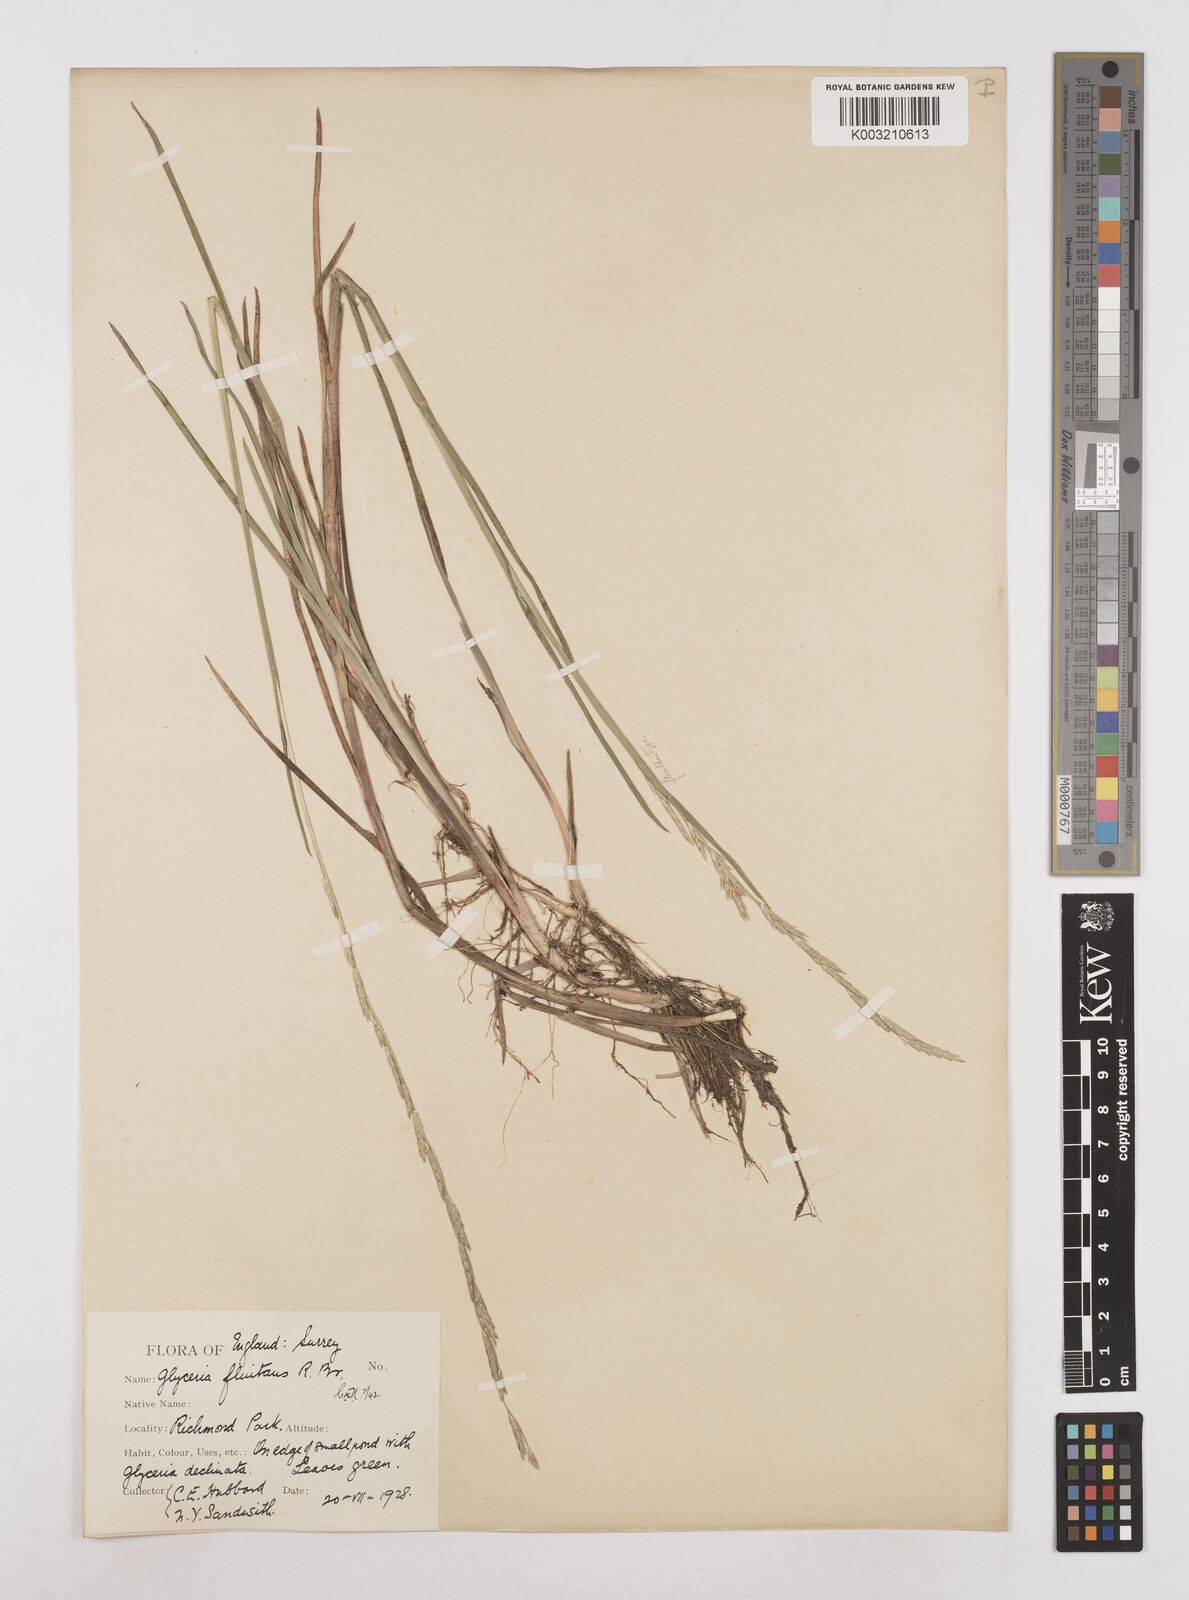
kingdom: Plantae
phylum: Tracheophyta
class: Liliopsida
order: Poales
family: Poaceae
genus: Glyceria
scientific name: Glyceria fluitans
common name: Floating sweet-grass
